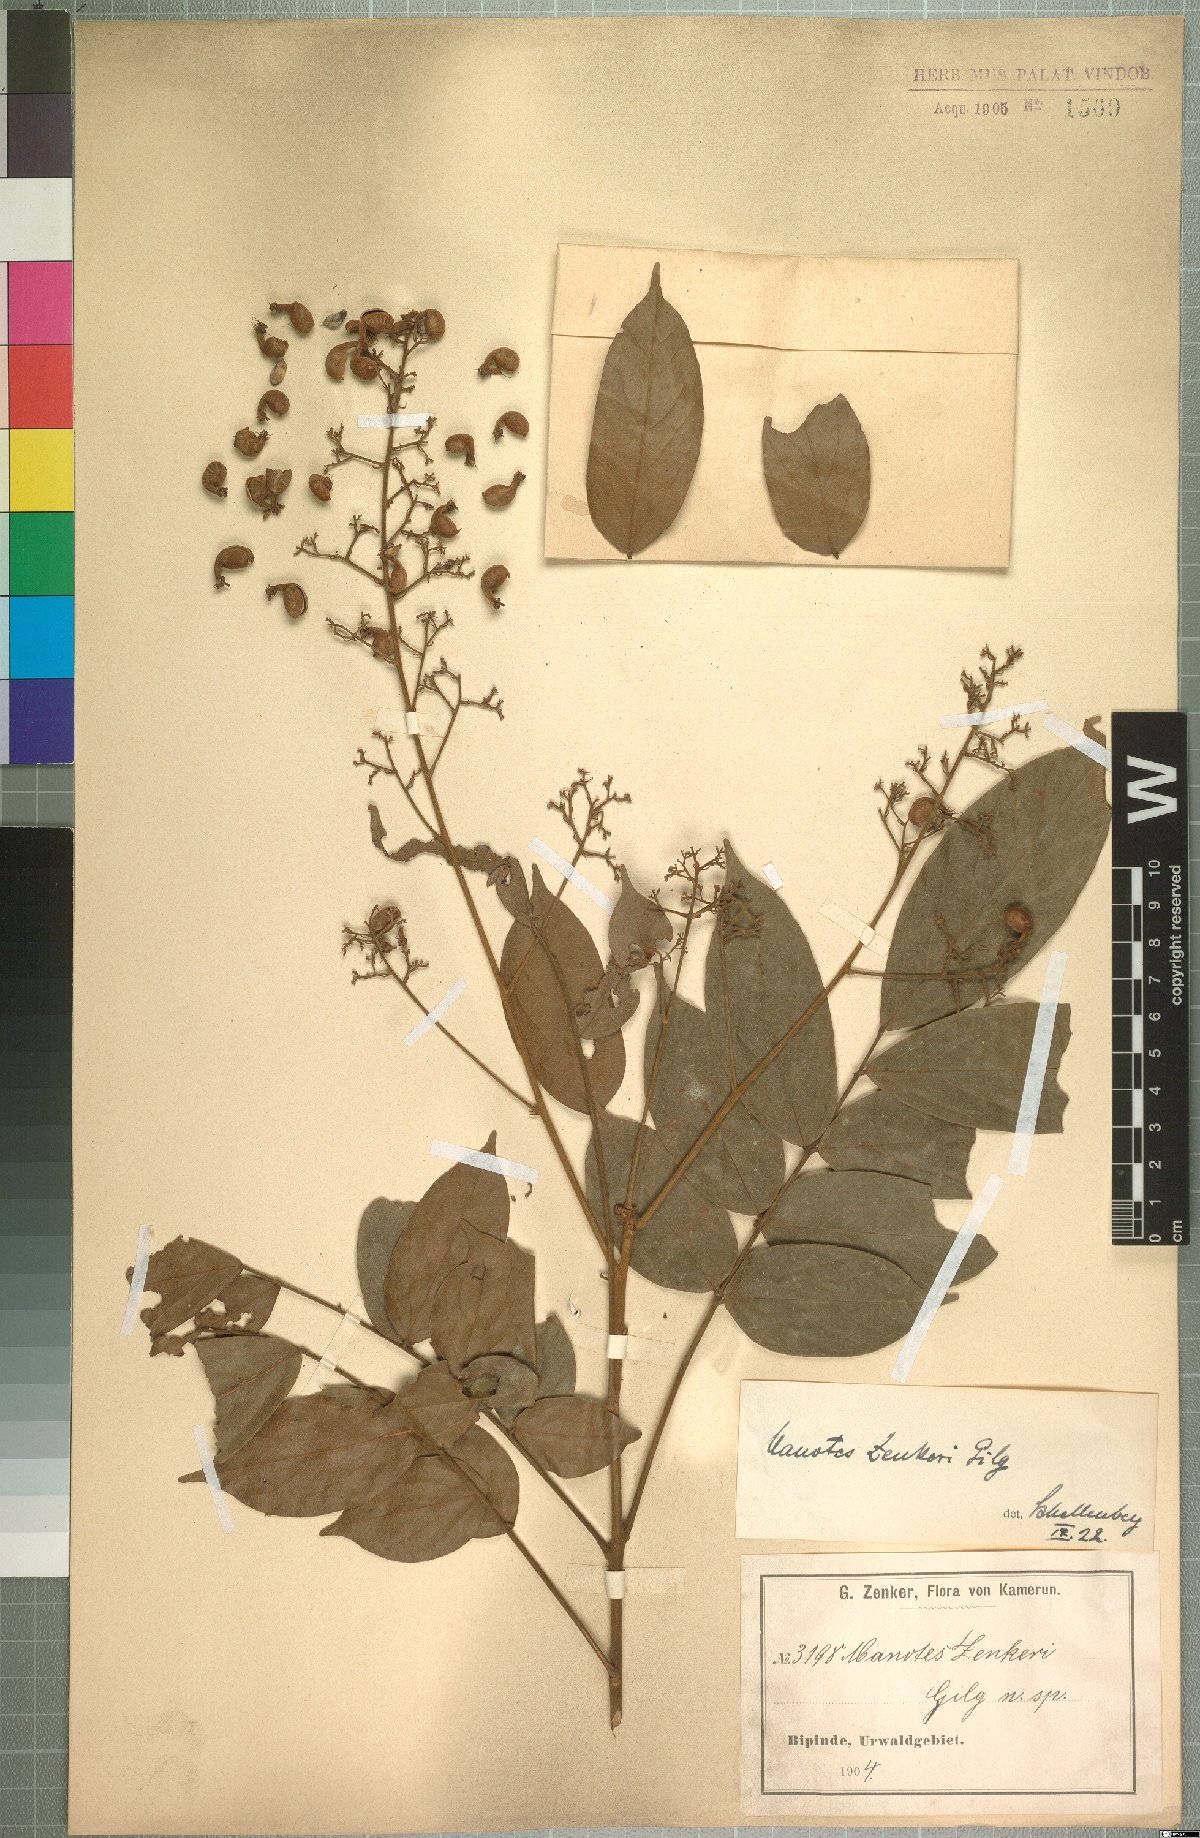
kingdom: Plantae
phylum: Tracheophyta
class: Magnoliopsida
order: Oxalidales
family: Connaraceae
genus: Manotes
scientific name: Manotes griffoniana
